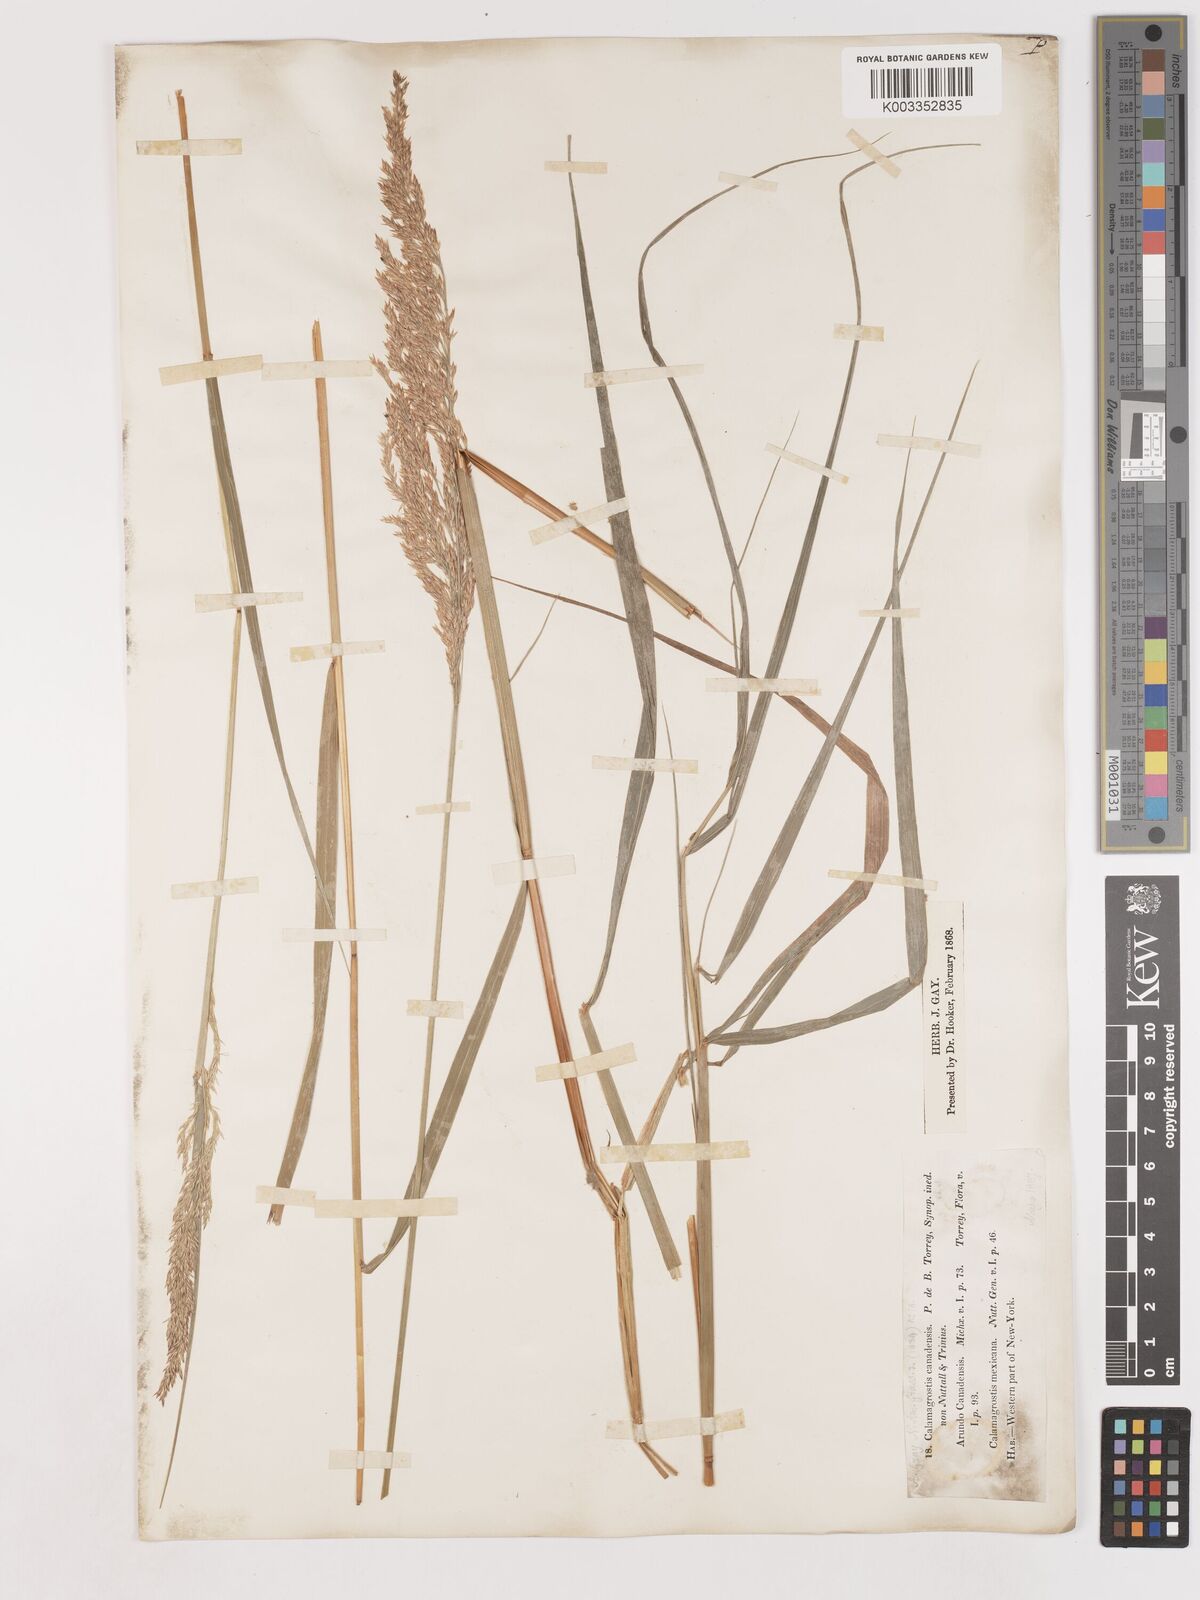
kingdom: Plantae
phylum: Tracheophyta
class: Liliopsida
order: Poales
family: Poaceae
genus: Calamagrostis
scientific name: Calamagrostis canadensis
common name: Canada bluejoint
